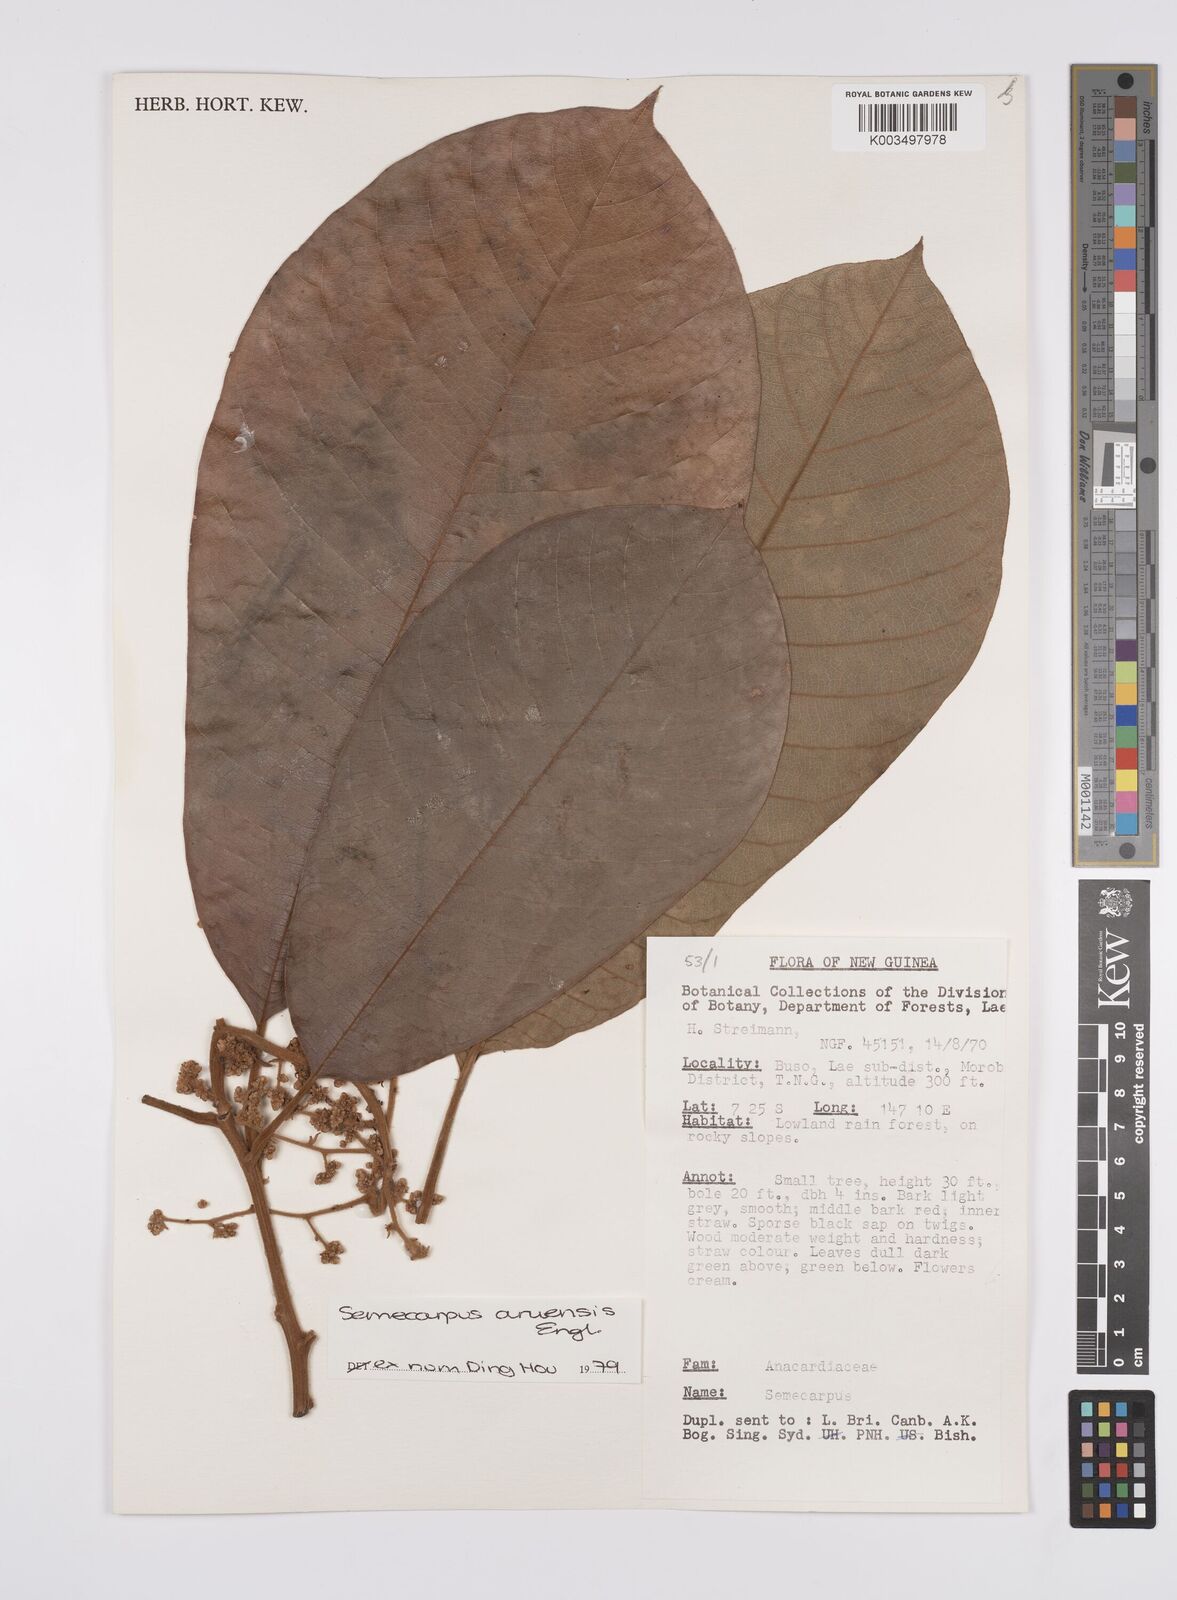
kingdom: Plantae
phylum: Tracheophyta
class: Magnoliopsida
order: Sapindales
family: Anacardiaceae
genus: Semecarpus
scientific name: Semecarpus aruensis
